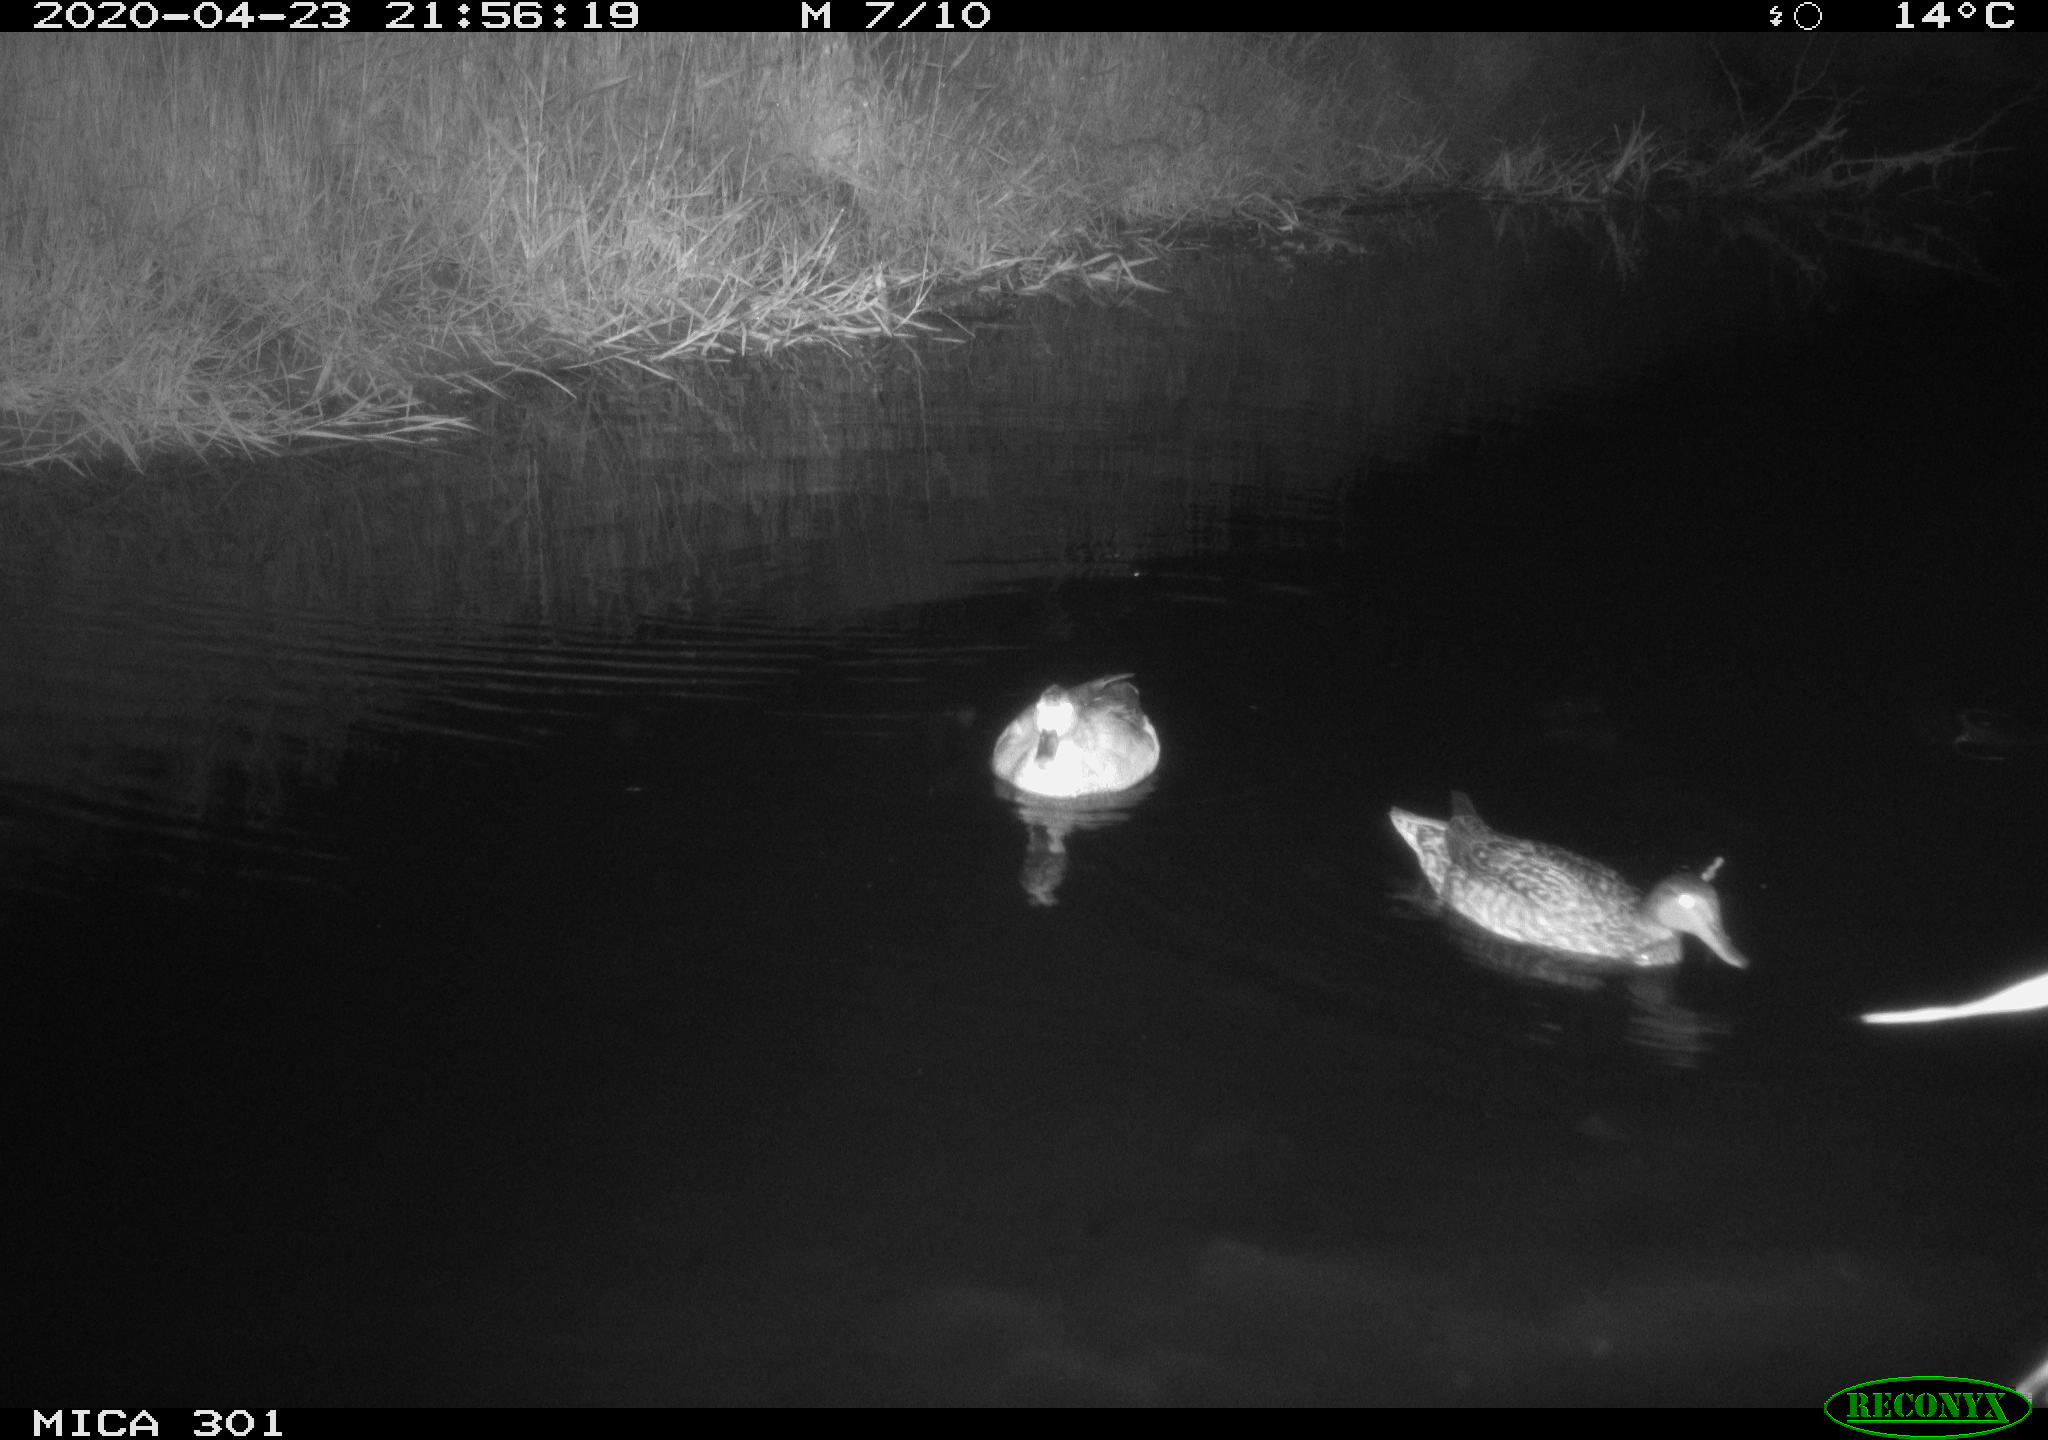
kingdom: Animalia
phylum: Chordata
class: Aves
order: Anseriformes
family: Anatidae
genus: Mareca
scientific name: Mareca strepera
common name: Gadwall
